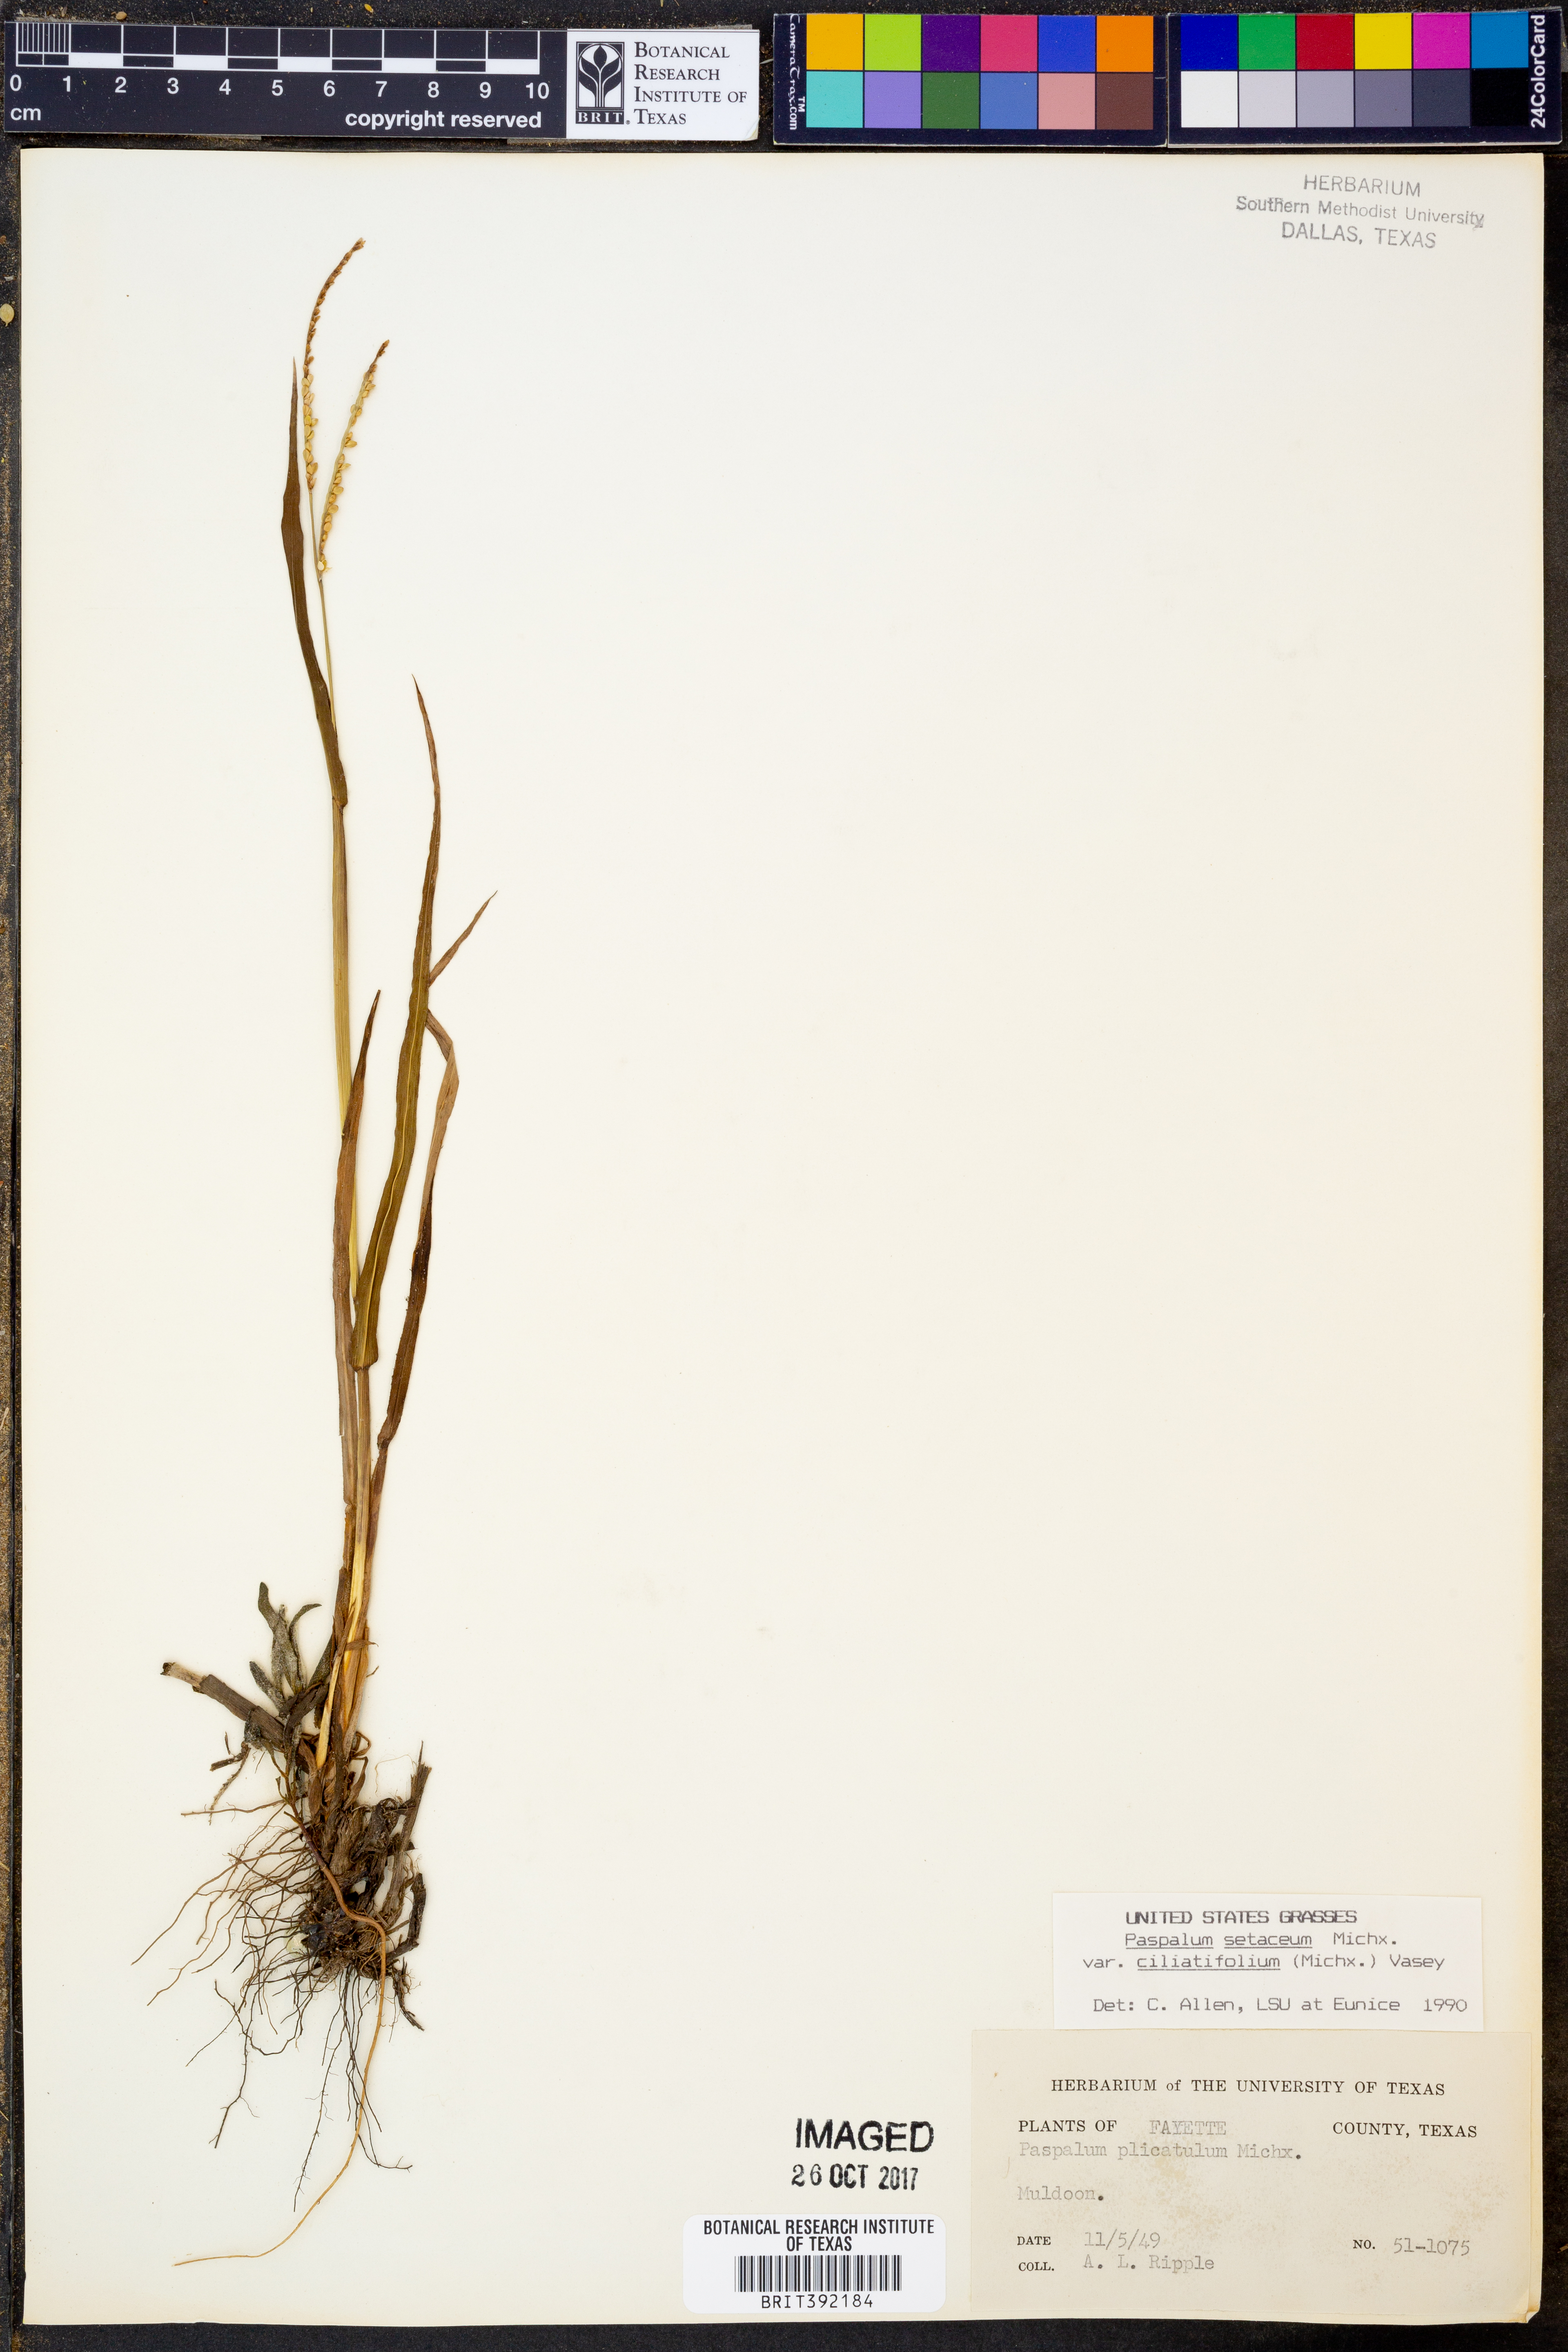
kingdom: Plantae
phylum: Tracheophyta
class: Liliopsida
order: Poales
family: Poaceae
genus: Paspalum
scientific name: Paspalum setaceum
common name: Slender paspalum
